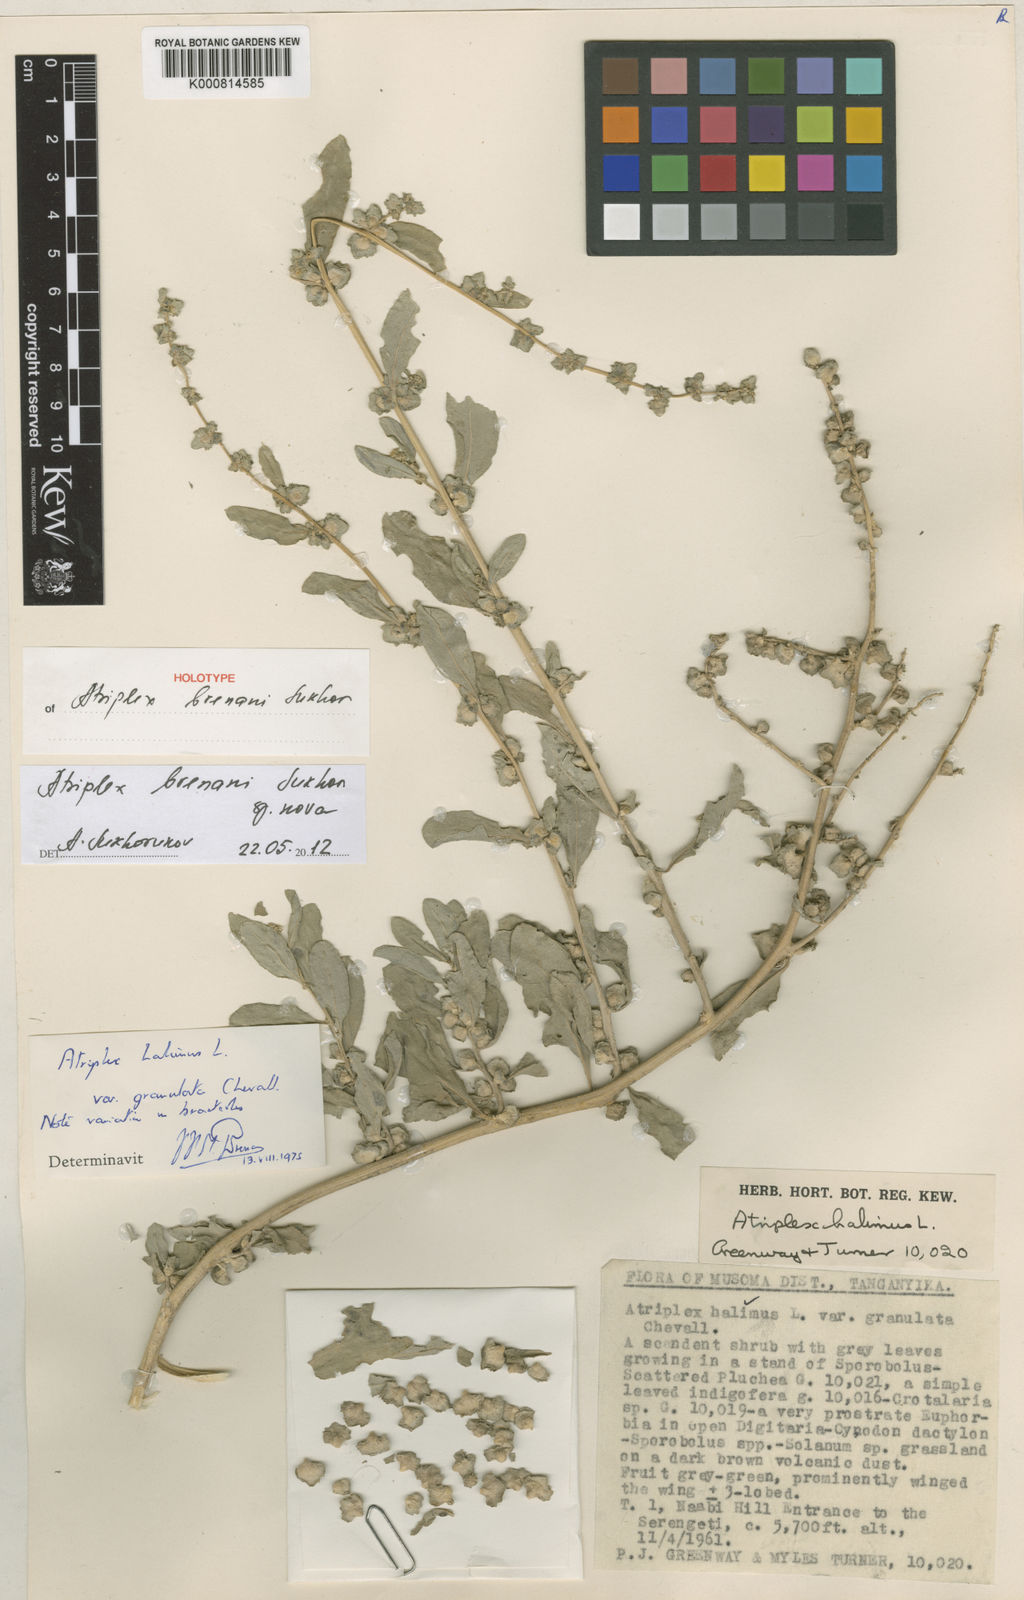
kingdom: Plantae
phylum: Tracheophyta
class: Magnoliopsida
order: Caryophyllales
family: Amaranthaceae
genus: Atriplex
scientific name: Atriplex brenanii
